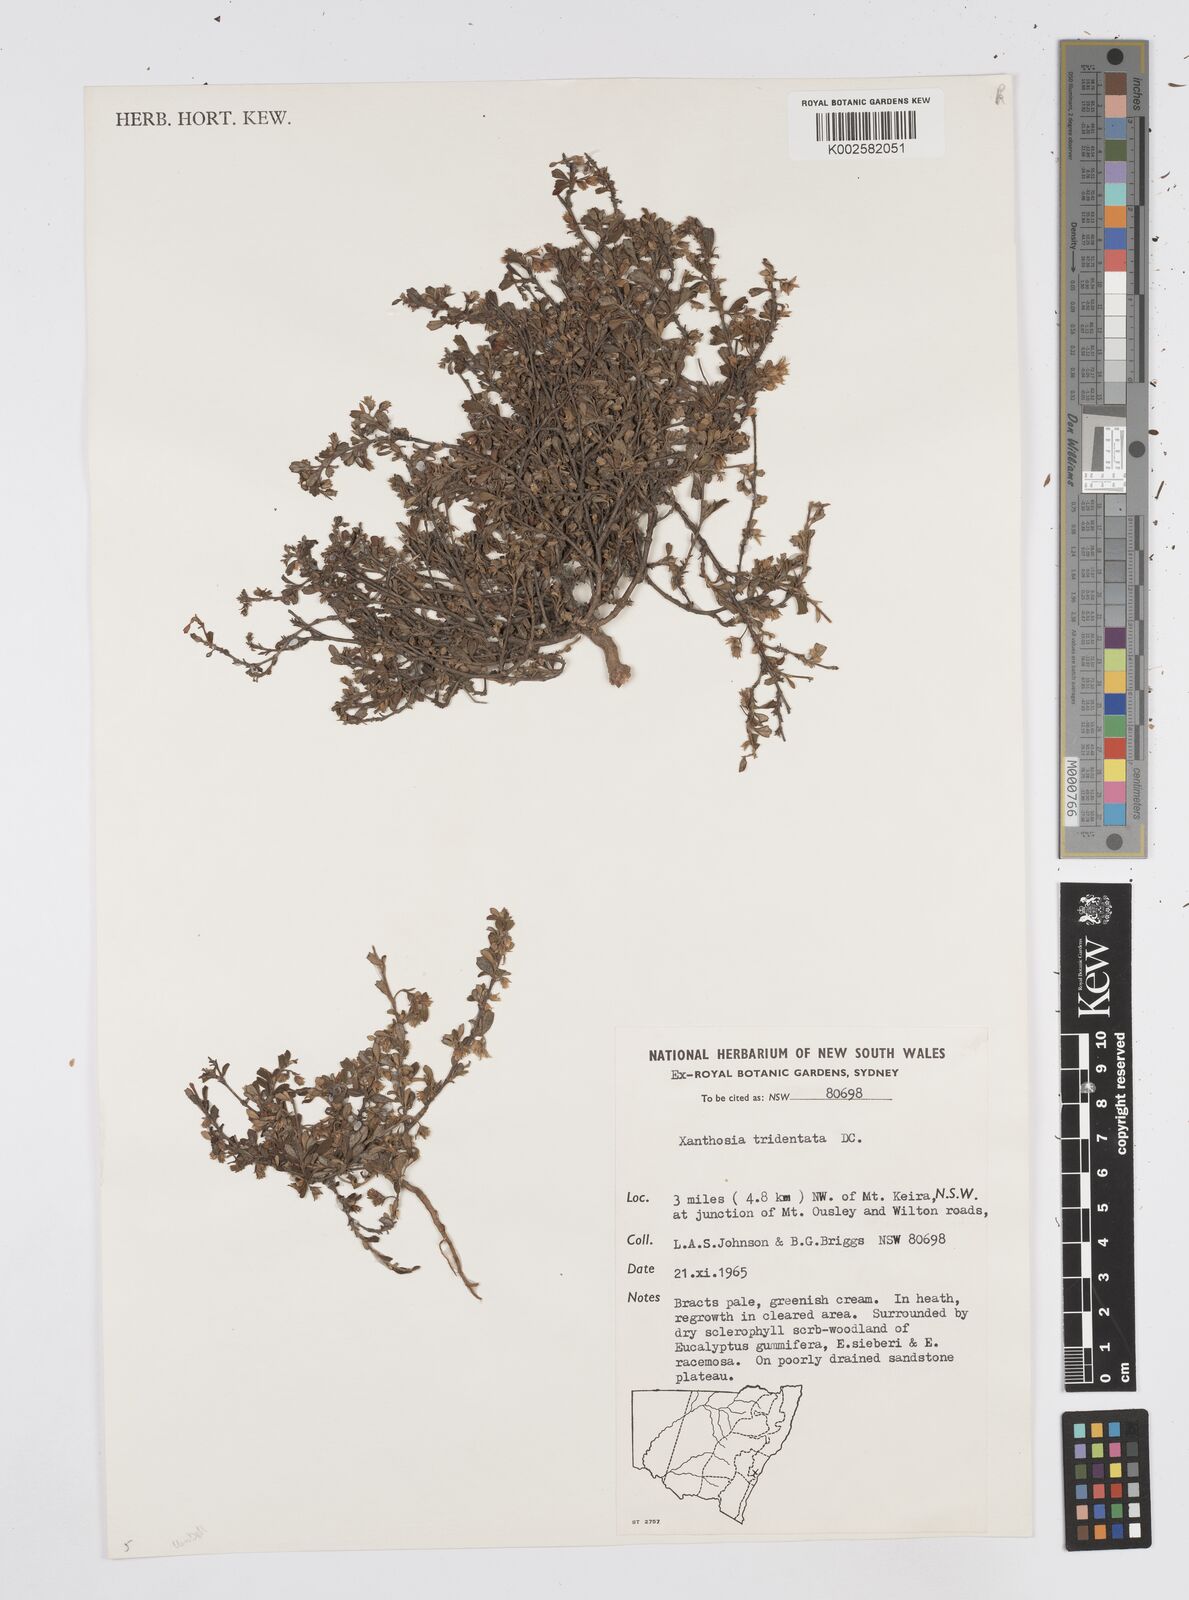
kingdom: Plantae
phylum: Tracheophyta
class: Magnoliopsida
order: Apiales
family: Apiaceae
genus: Xanthosia
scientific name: Xanthosia tridentata
